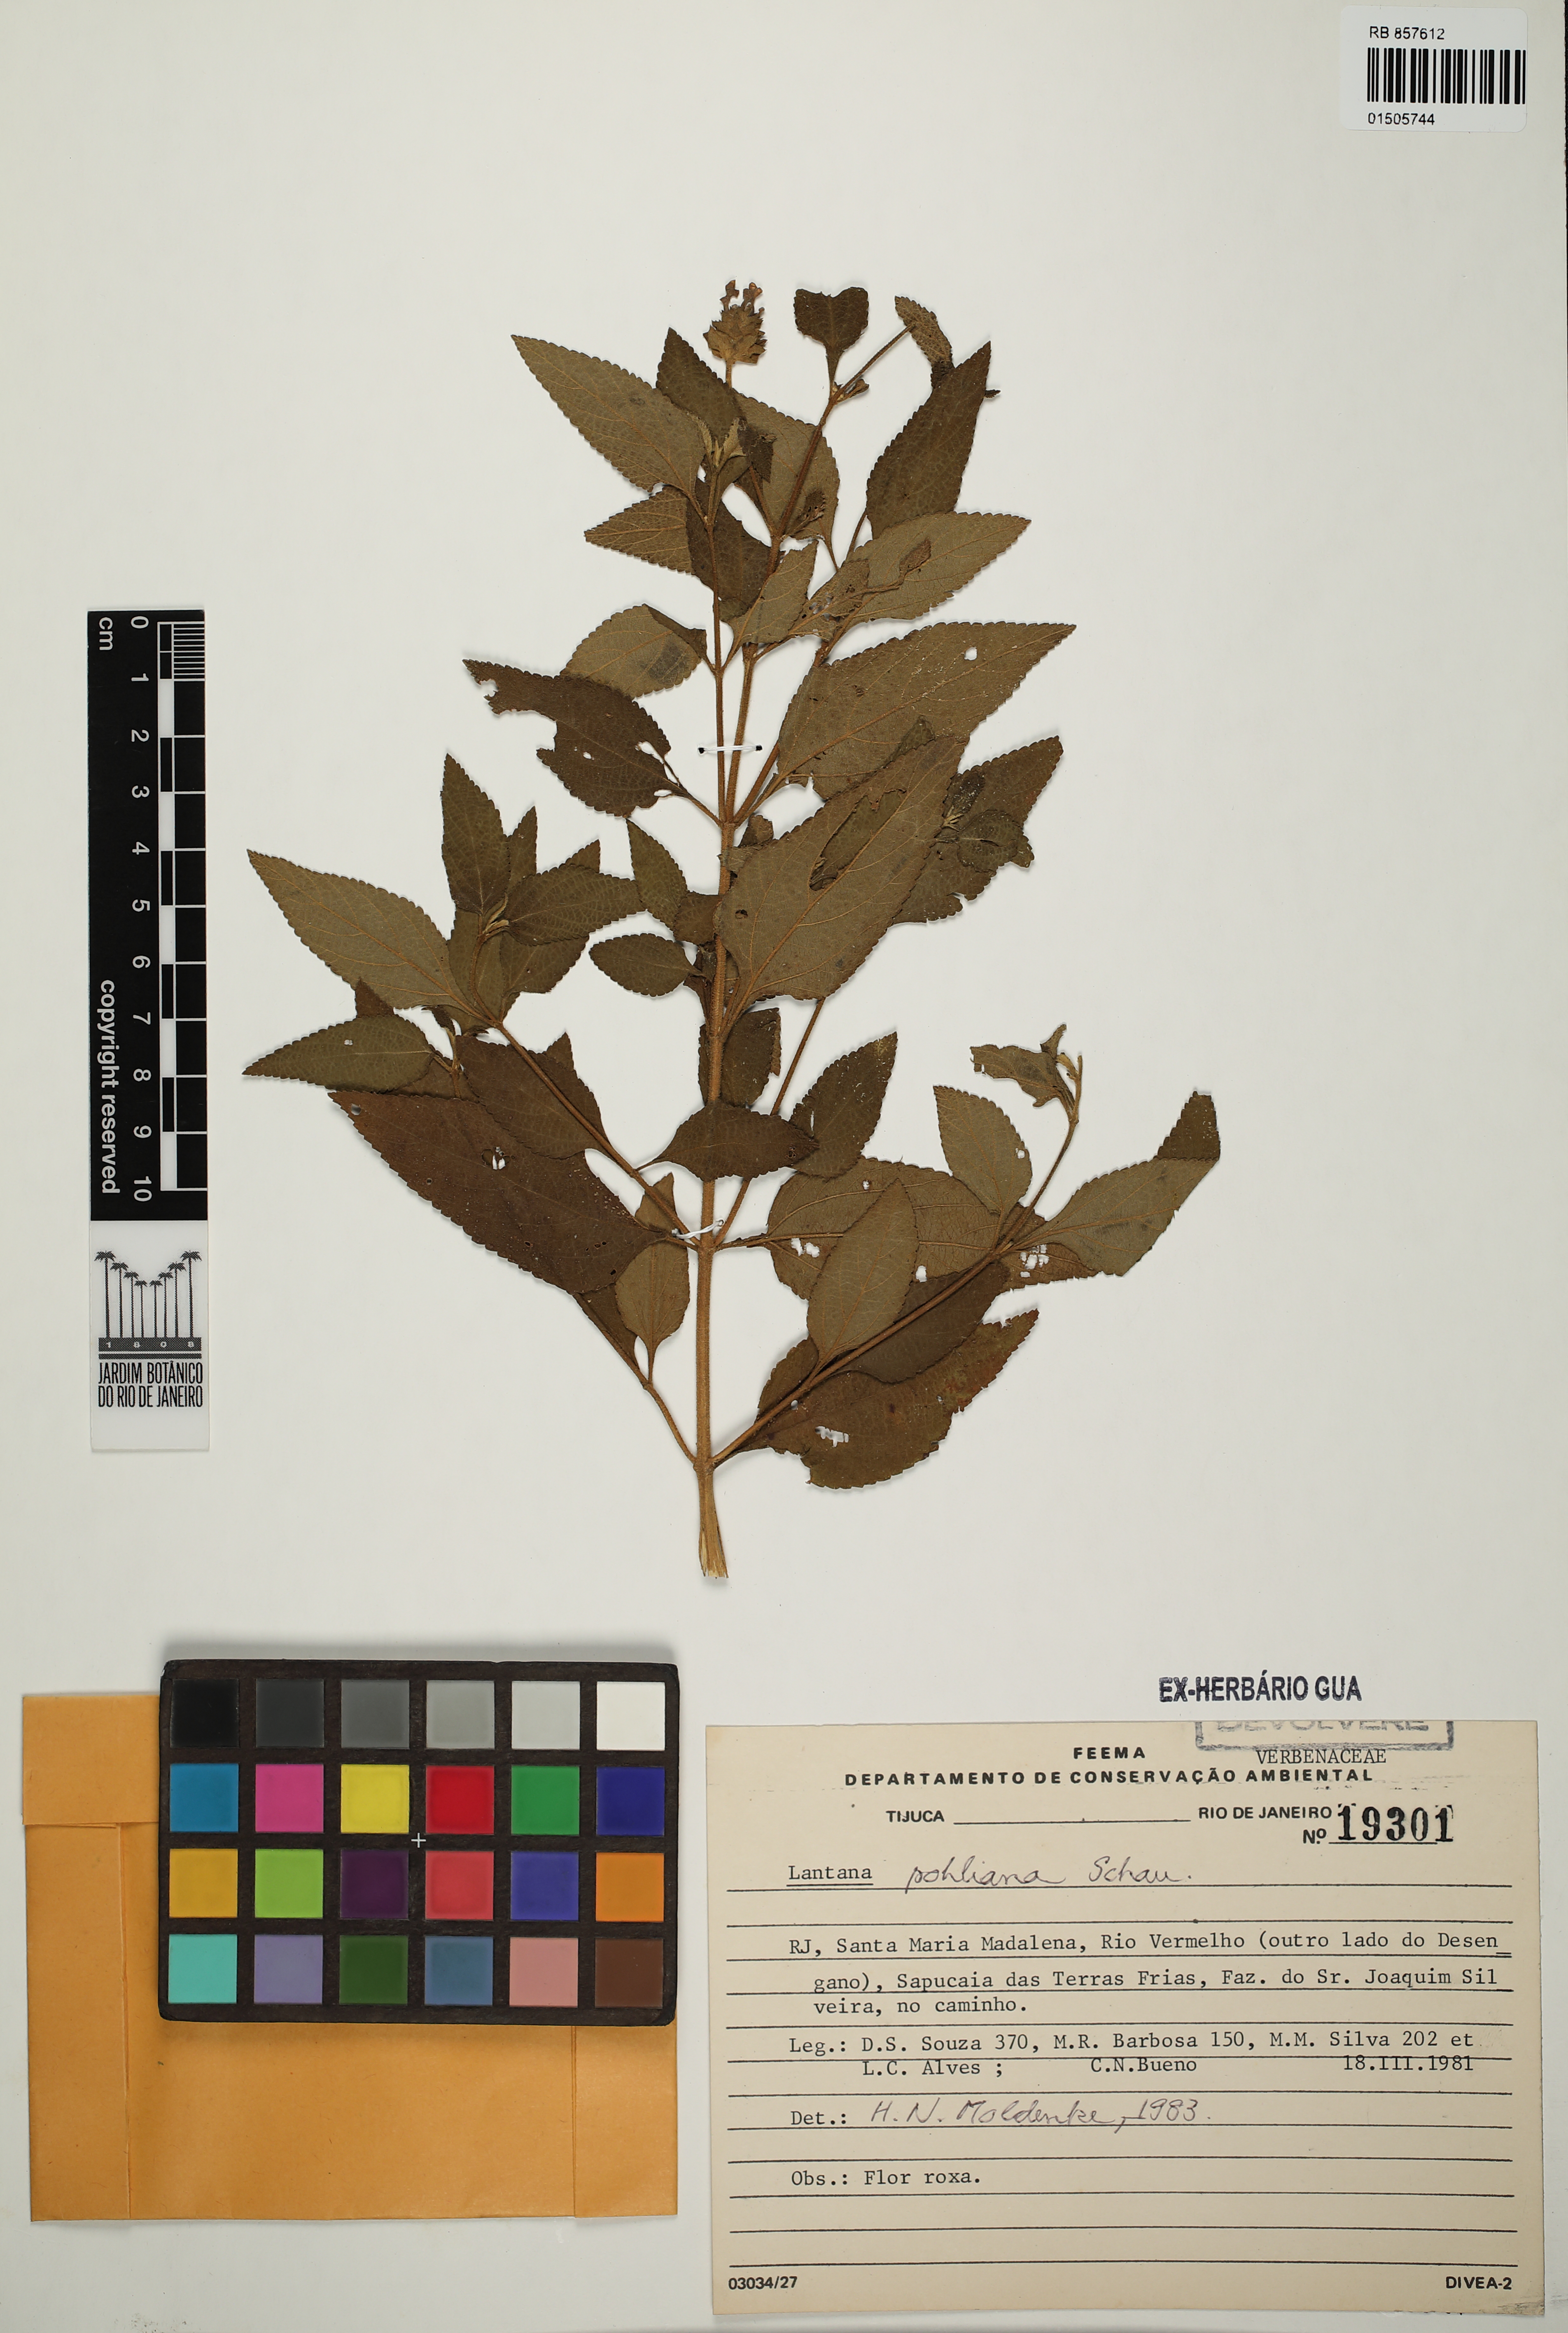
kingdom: Plantae
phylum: Tracheophyta
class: Magnoliopsida
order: Lamiales
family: Verbenaceae
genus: Lantana
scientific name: Lantana pohliana
